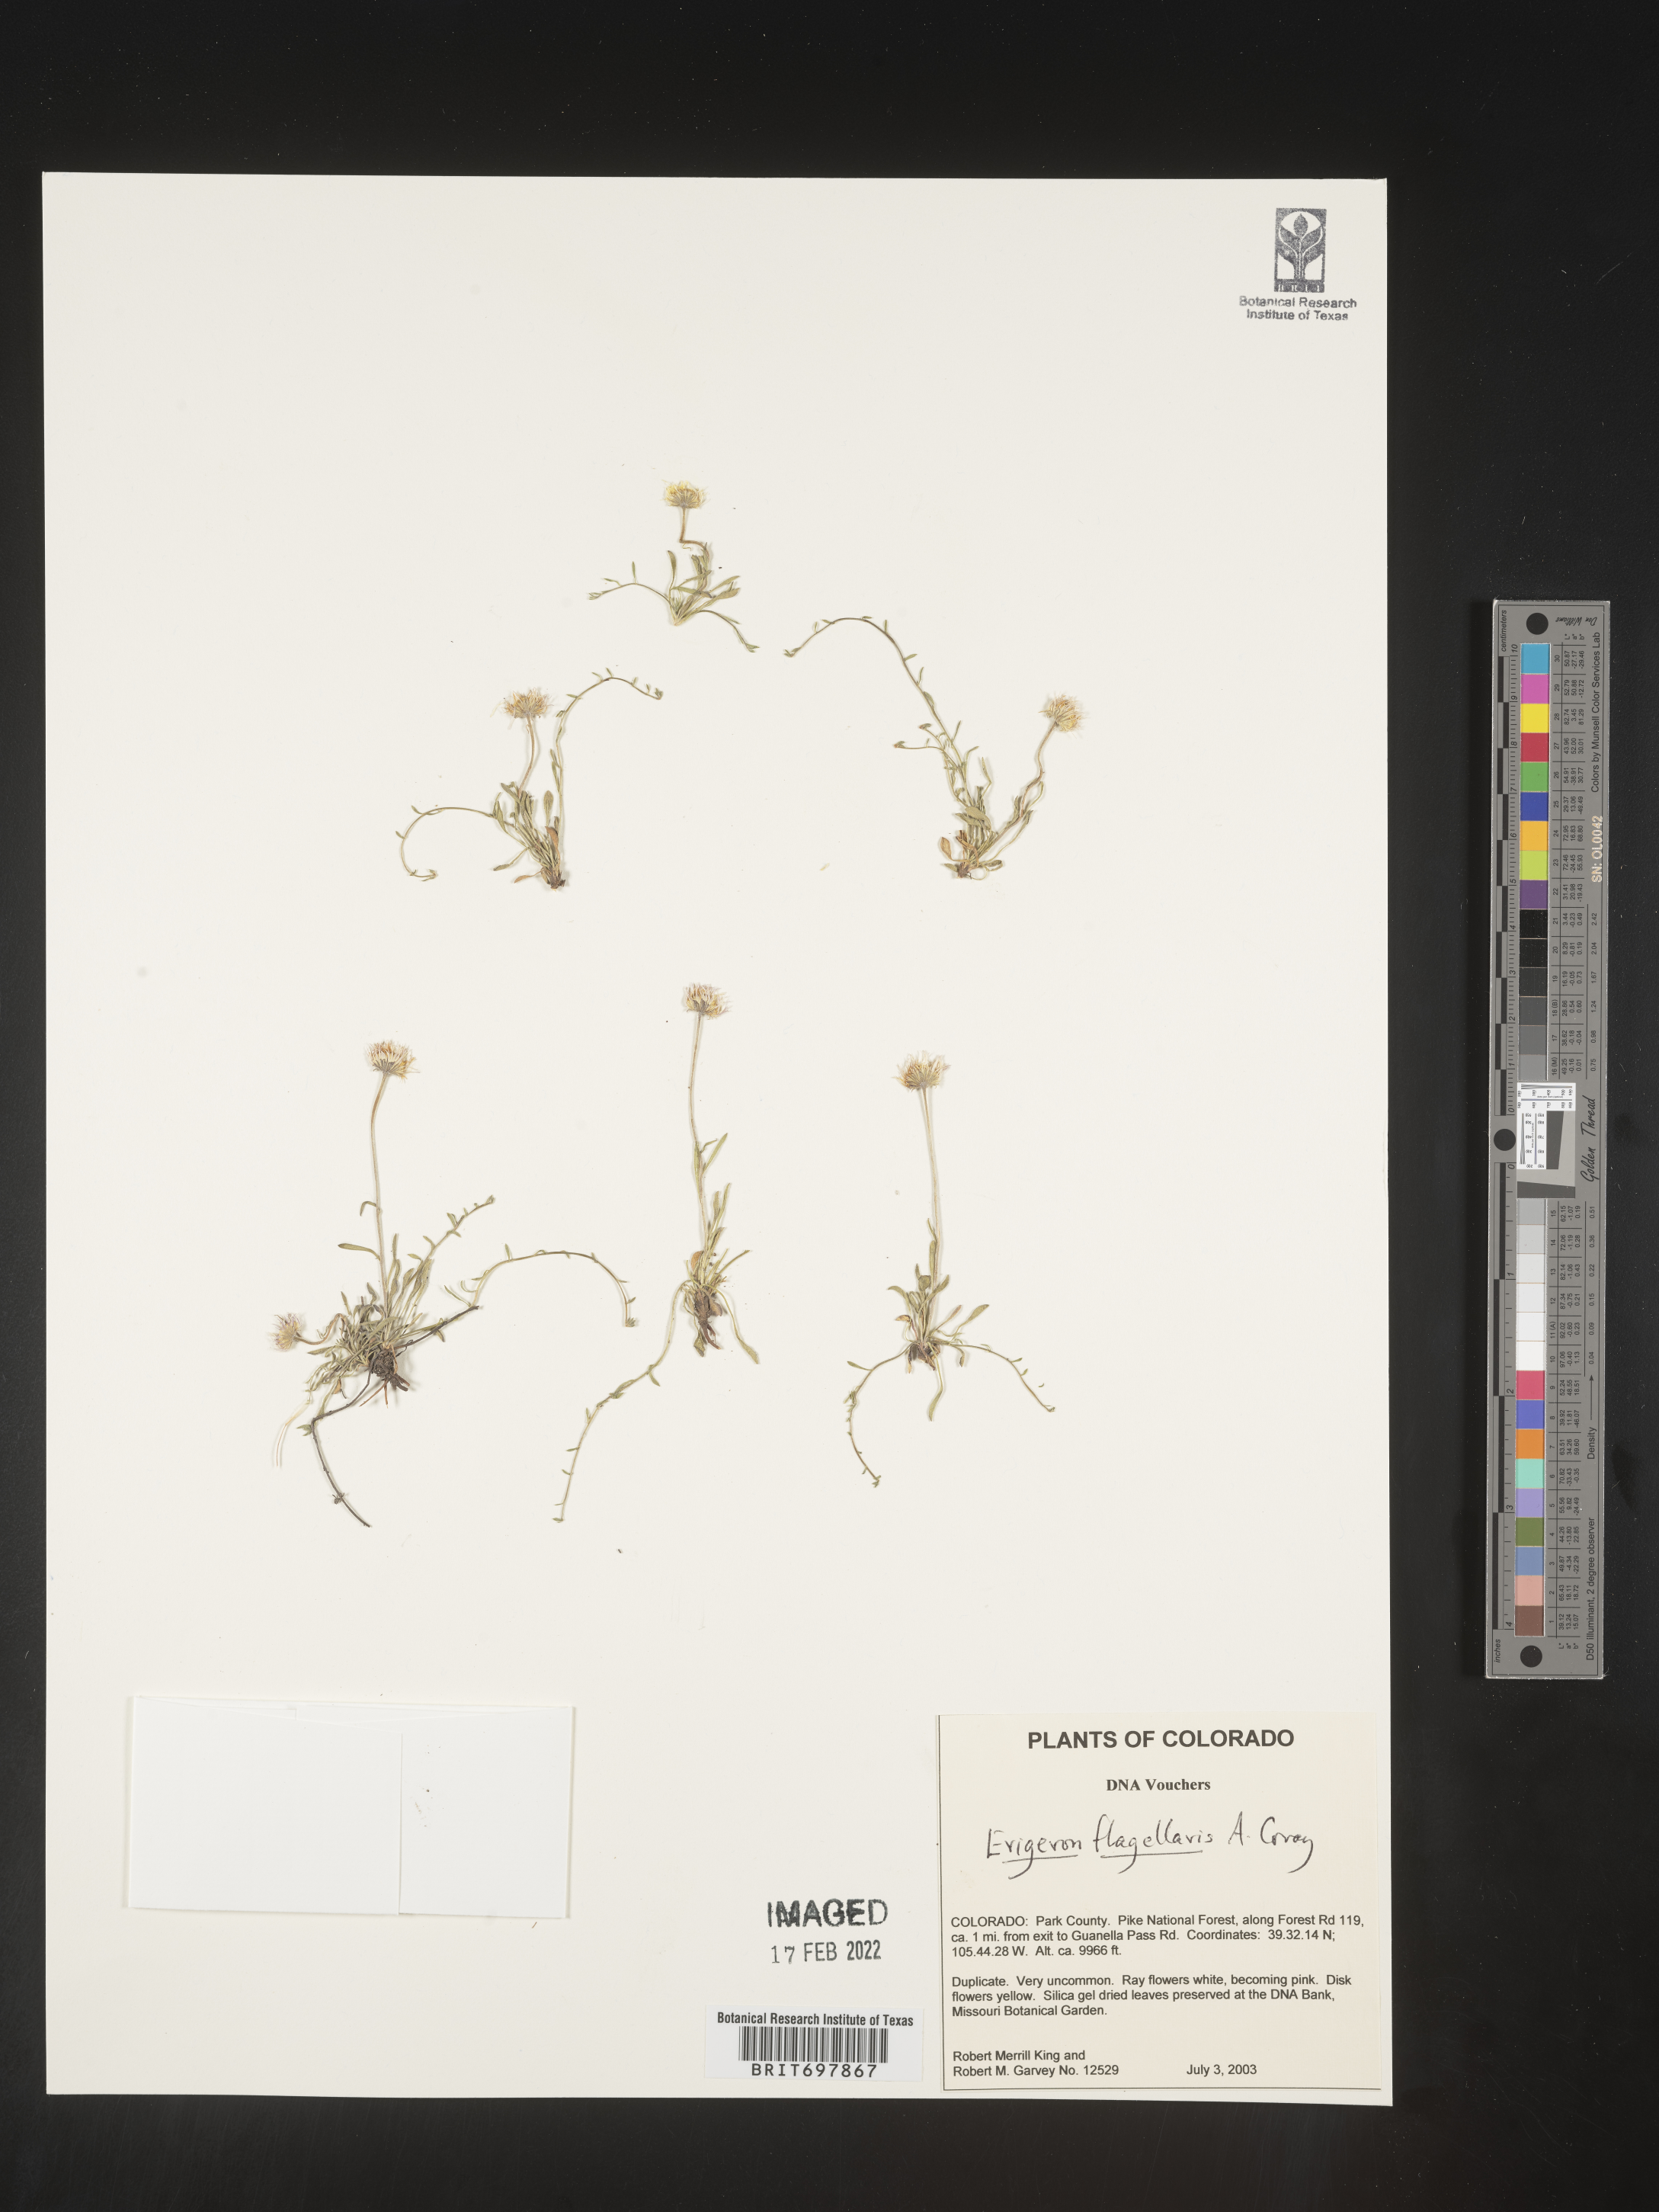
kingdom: Plantae
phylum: Tracheophyta
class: Magnoliopsida
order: Asterales
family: Asteraceae
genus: Erigeron
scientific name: Erigeron flagellaris
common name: Running fleabane
